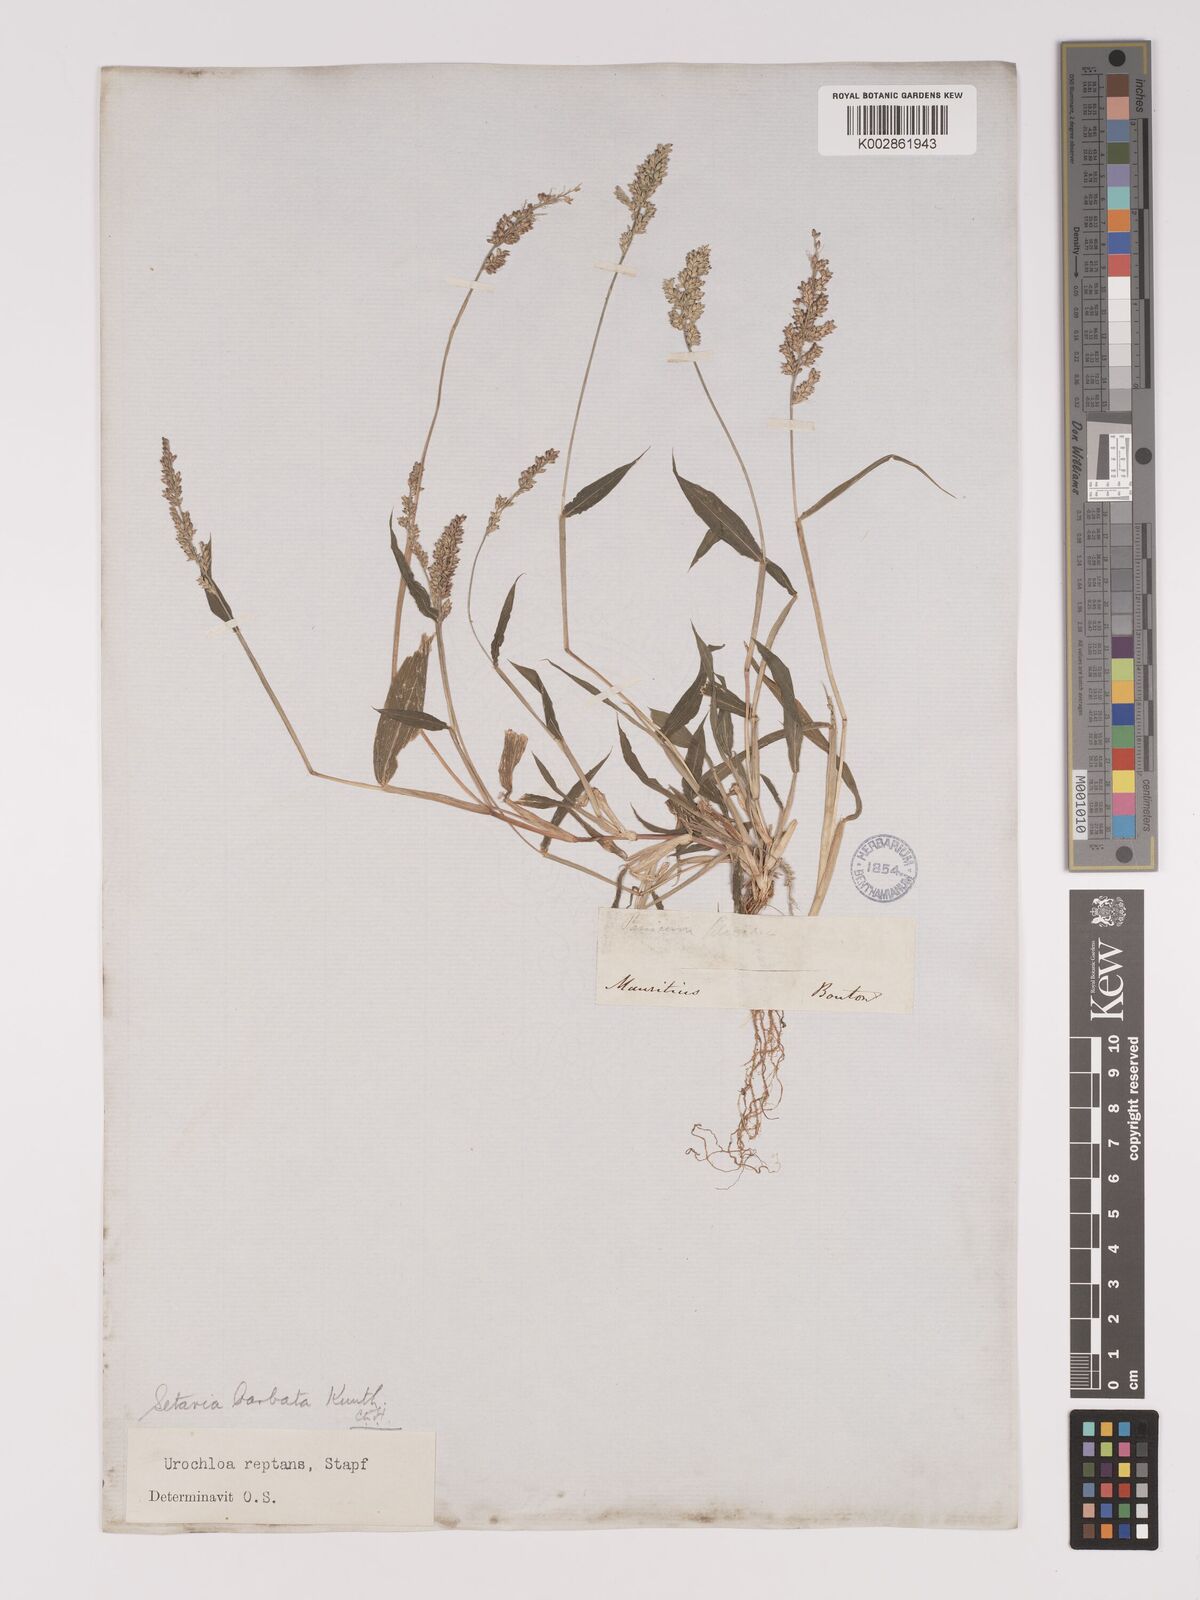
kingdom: Plantae
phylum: Tracheophyta
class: Liliopsida
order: Poales
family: Poaceae
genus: Setaria
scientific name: Setaria barbata
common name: East indian bristlegrass
